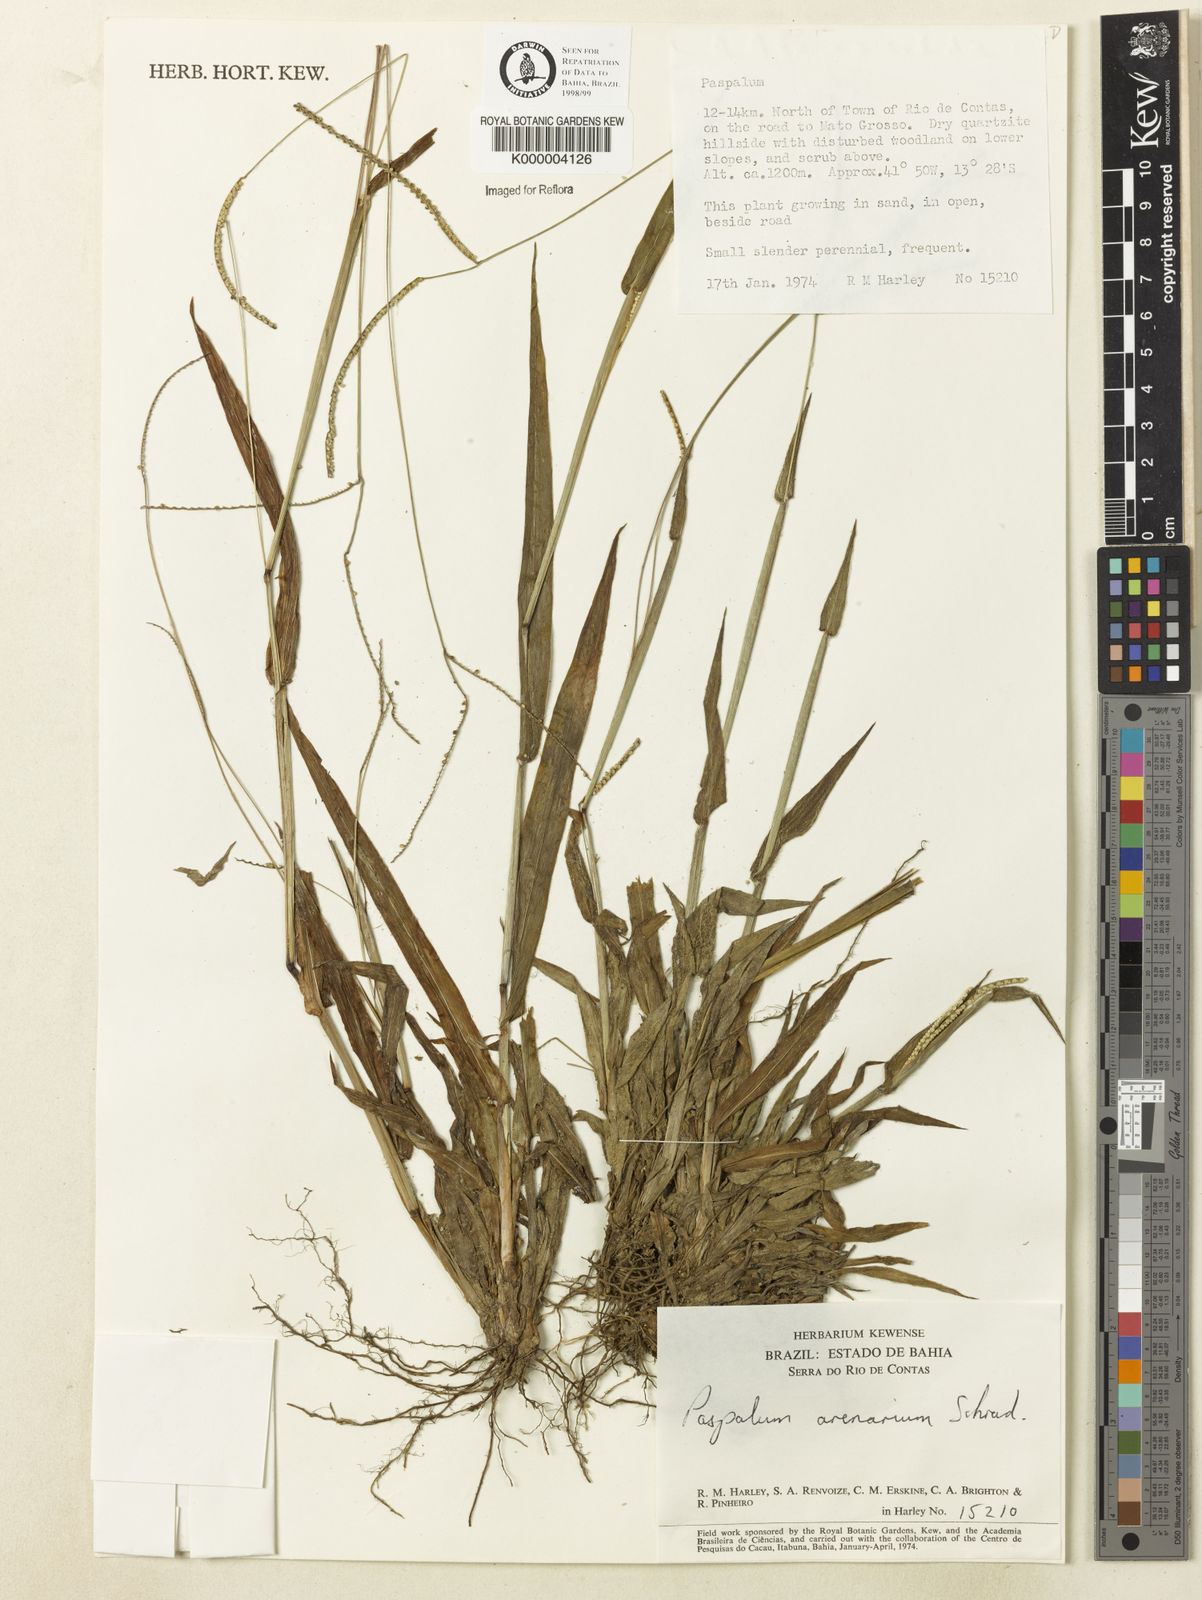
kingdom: Plantae
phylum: Tracheophyta
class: Liliopsida
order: Poales
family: Poaceae
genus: Paspalum
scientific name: Paspalum arenarium
